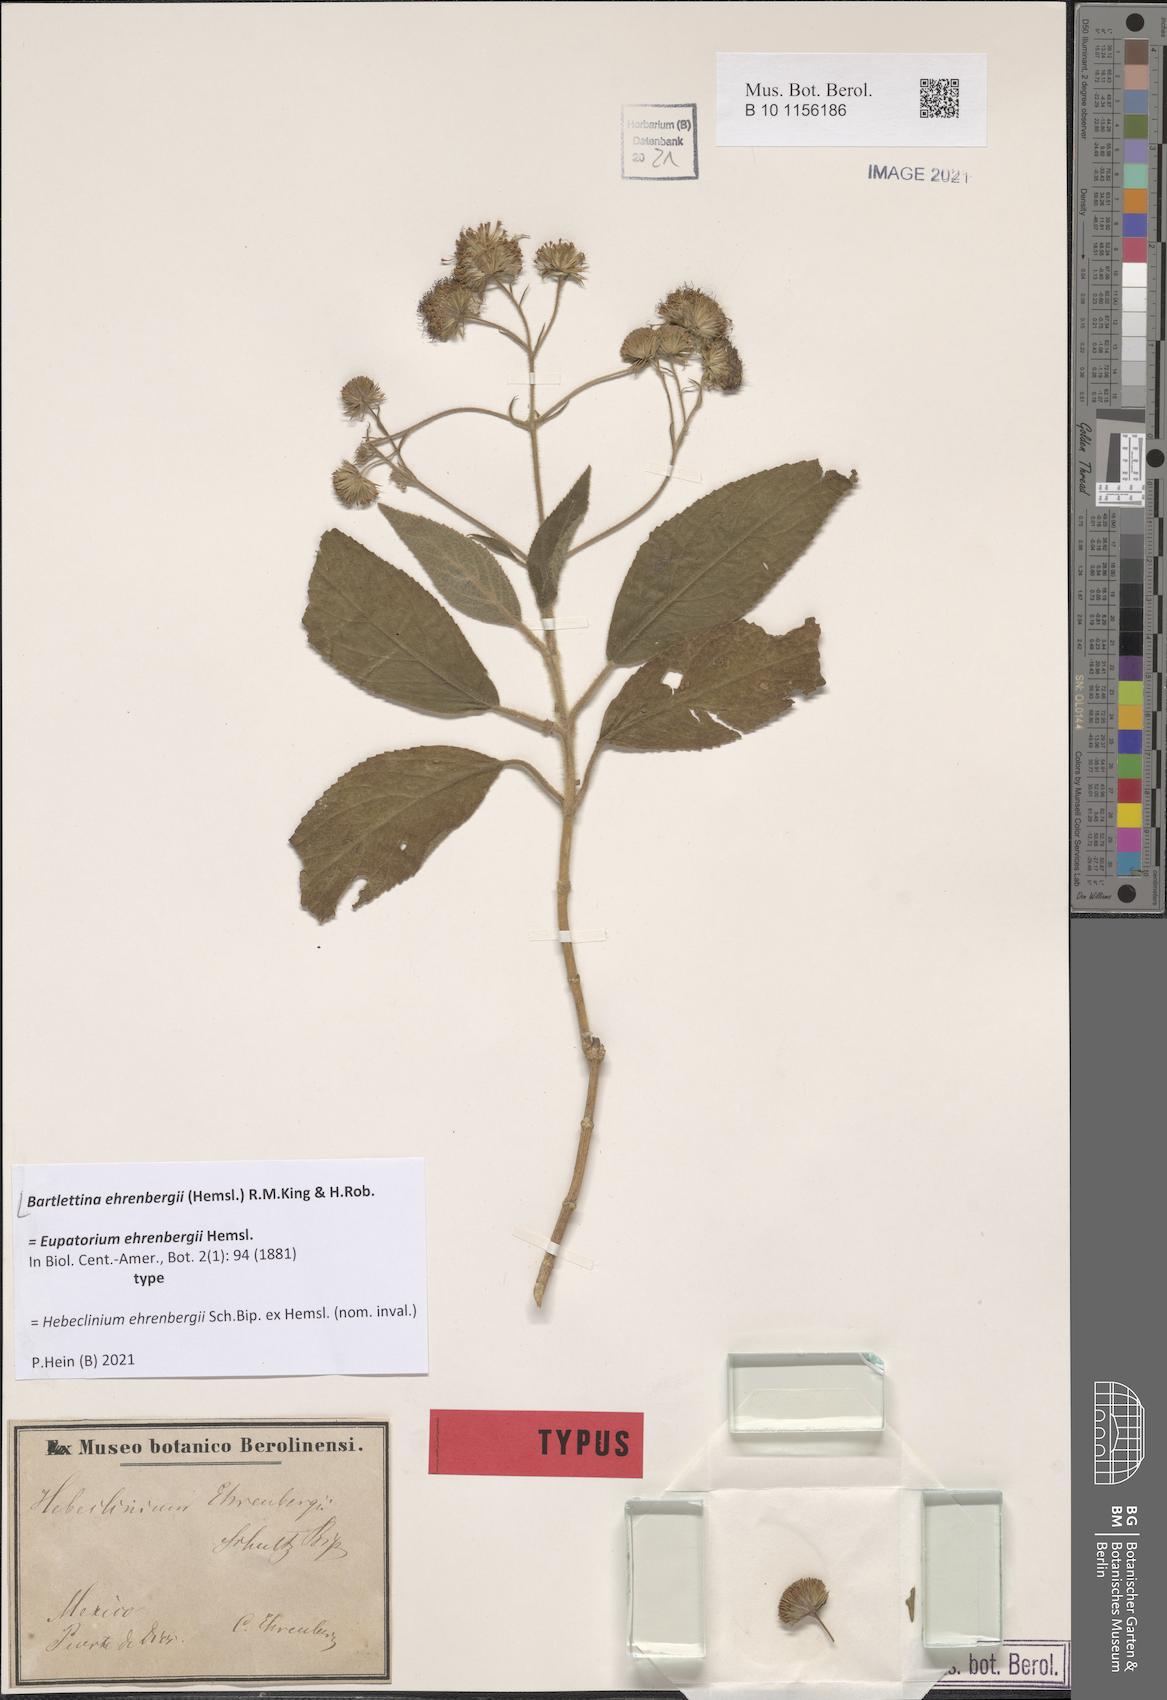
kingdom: Plantae
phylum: Tracheophyta
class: Magnoliopsida
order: Asterales
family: Asteraceae
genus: Bartlettina
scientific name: Bartlettina ehrenbergii
